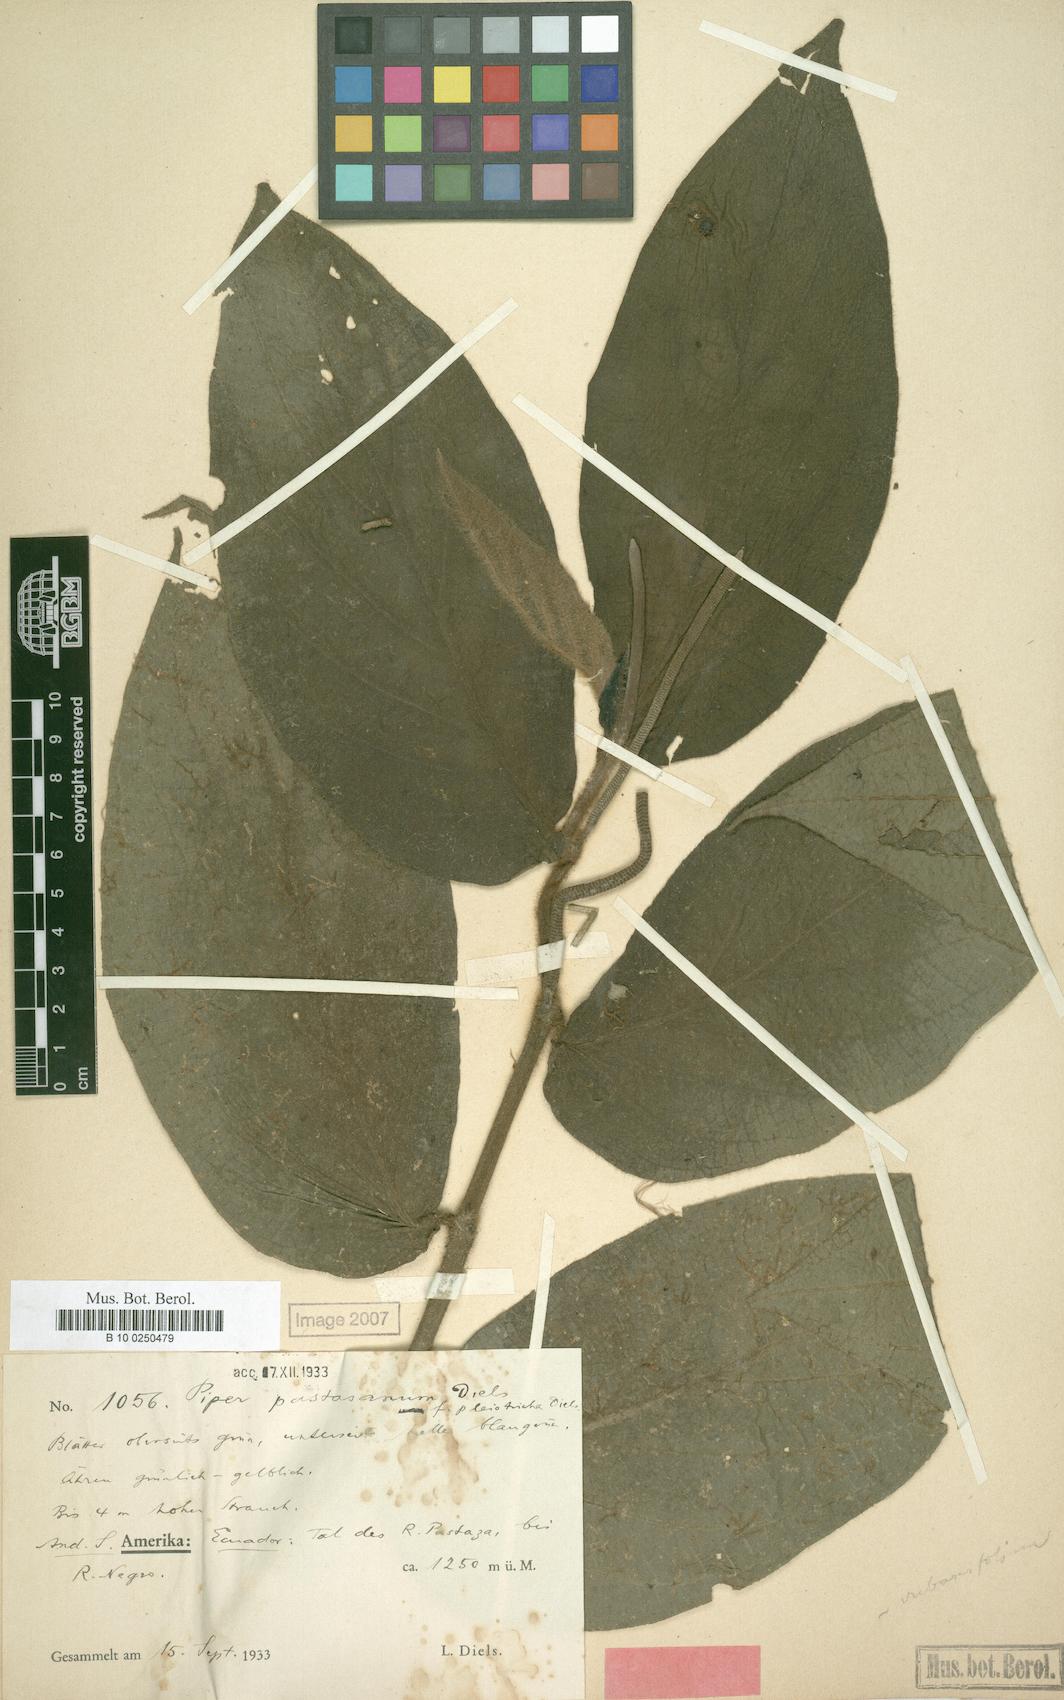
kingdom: Plantae
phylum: Tracheophyta
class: Magnoliopsida
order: Piperales
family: Piperaceae
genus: Piper
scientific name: Piper pastasanum
